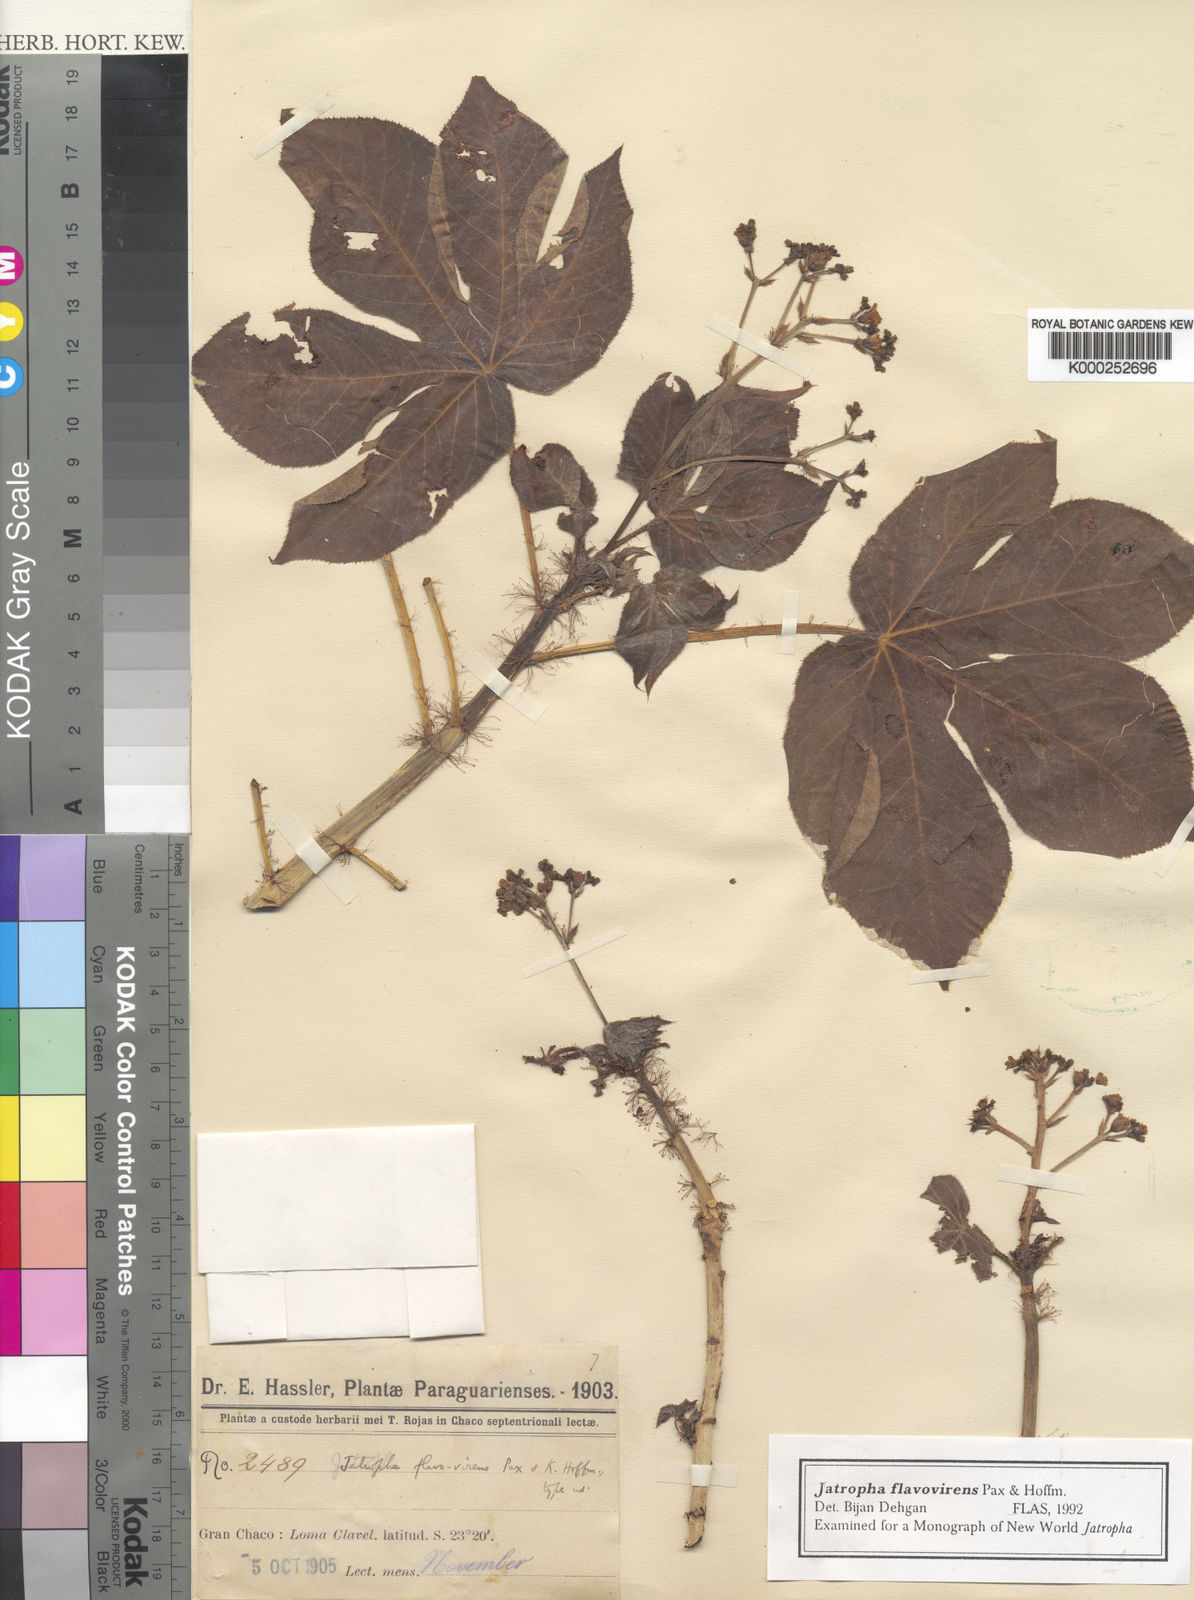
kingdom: Plantae
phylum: Tracheophyta
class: Magnoliopsida
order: Malpighiales
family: Euphorbiaceae
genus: Jatropha
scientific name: Jatropha hippocastanifolia
